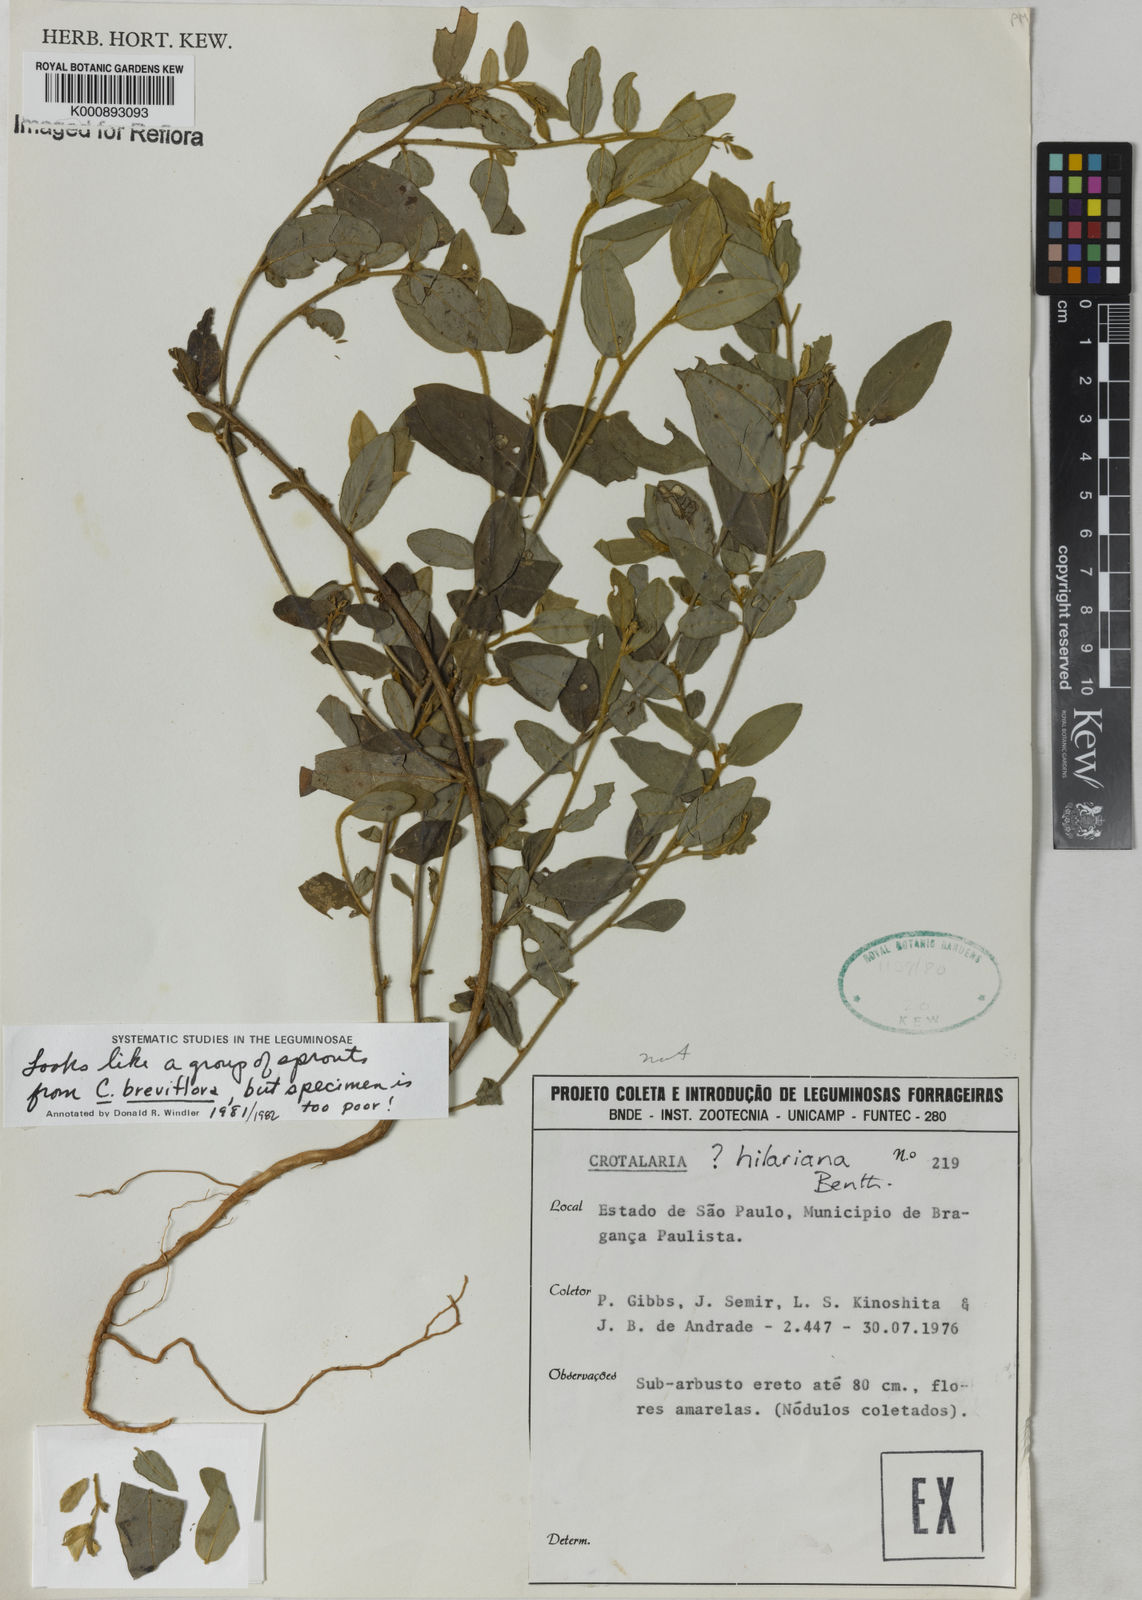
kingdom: Plantae
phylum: Tracheophyta
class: Magnoliopsida
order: Fabales
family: Fabaceae
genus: Crotalaria
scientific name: Crotalaria breviflora
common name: Short-flower crotalaria
